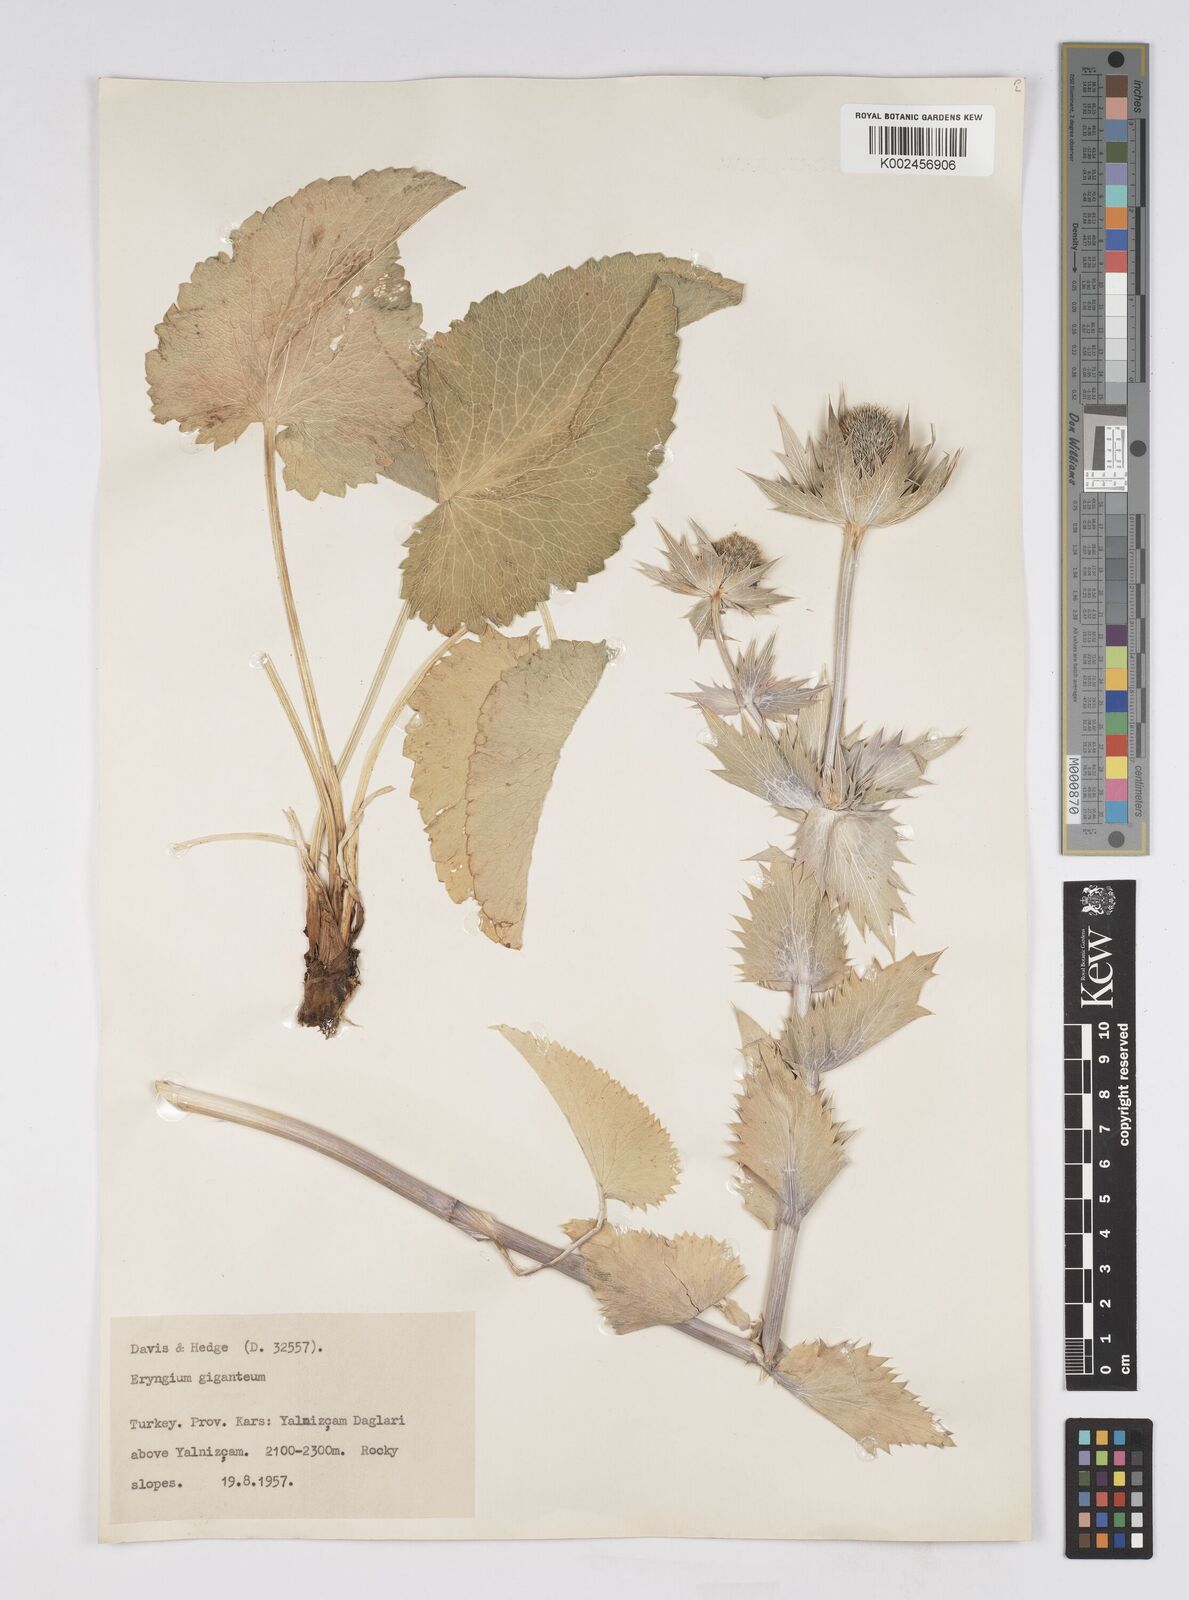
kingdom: Plantae
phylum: Tracheophyta
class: Magnoliopsida
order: Apiales
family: Apiaceae
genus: Eryngium
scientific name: Eryngium giganteum
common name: Tall eryngo
